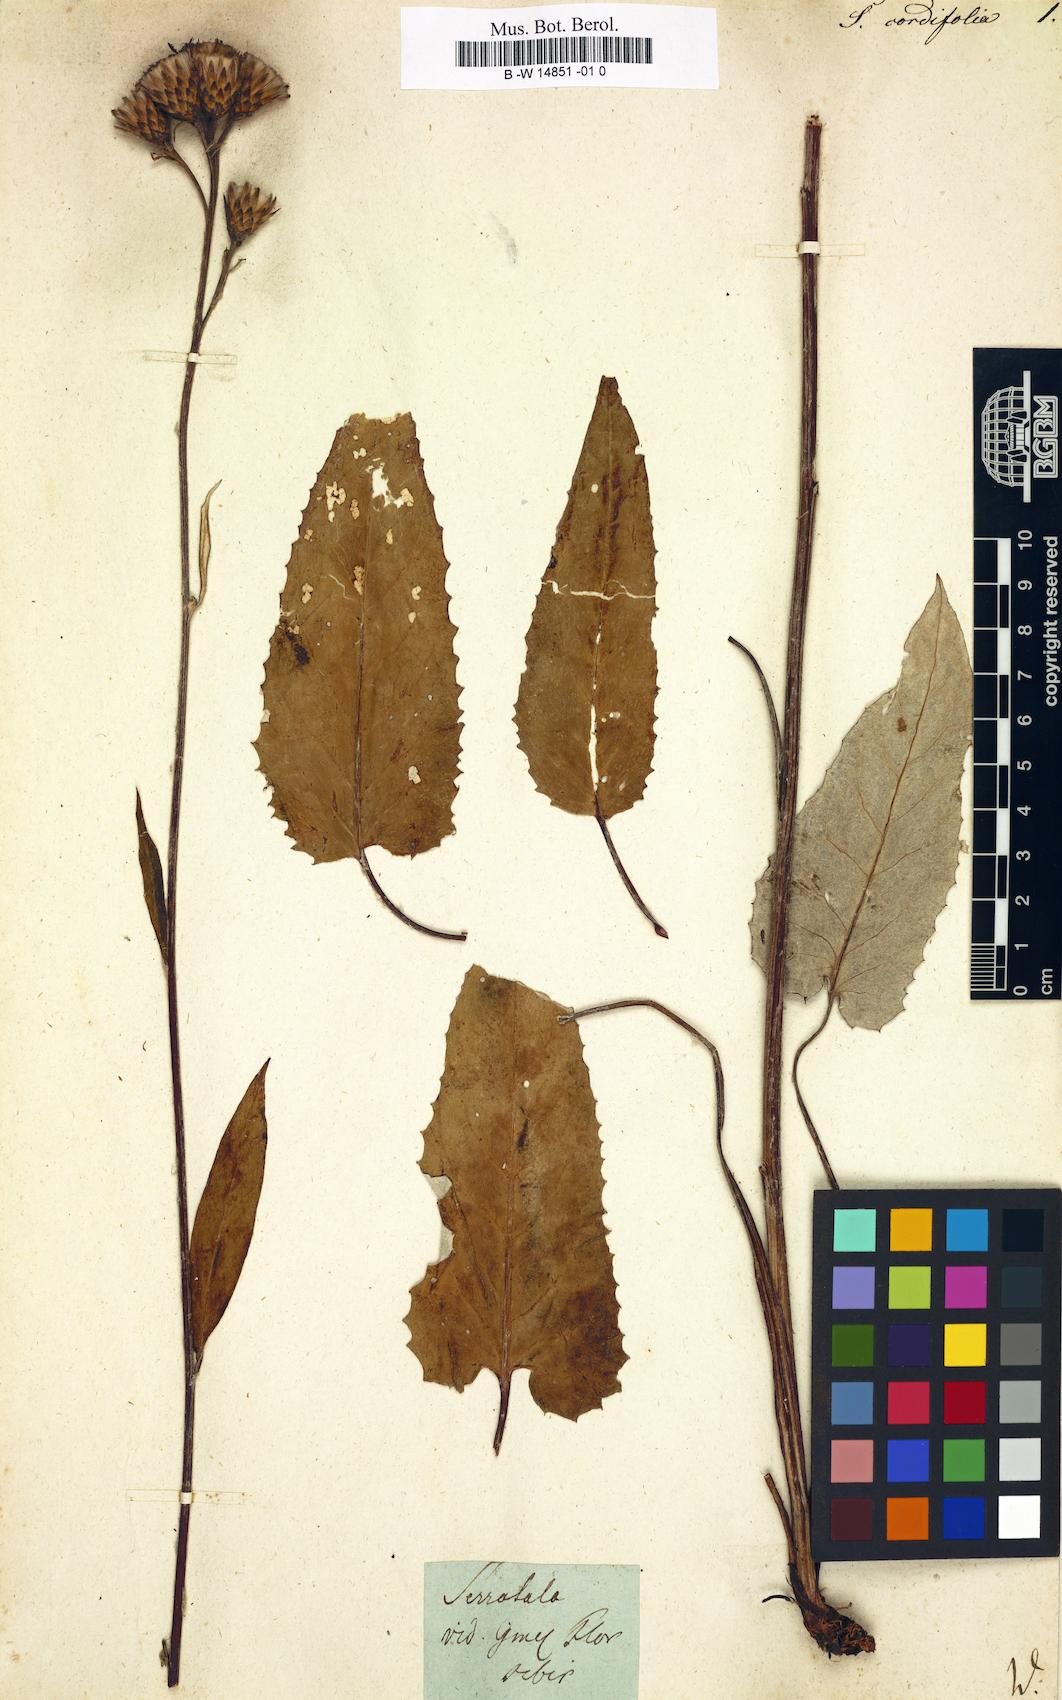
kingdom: Plantae
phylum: Tracheophyta
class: Magnoliopsida
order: Asterales
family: Asteraceae
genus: Serratula
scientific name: Serratula
